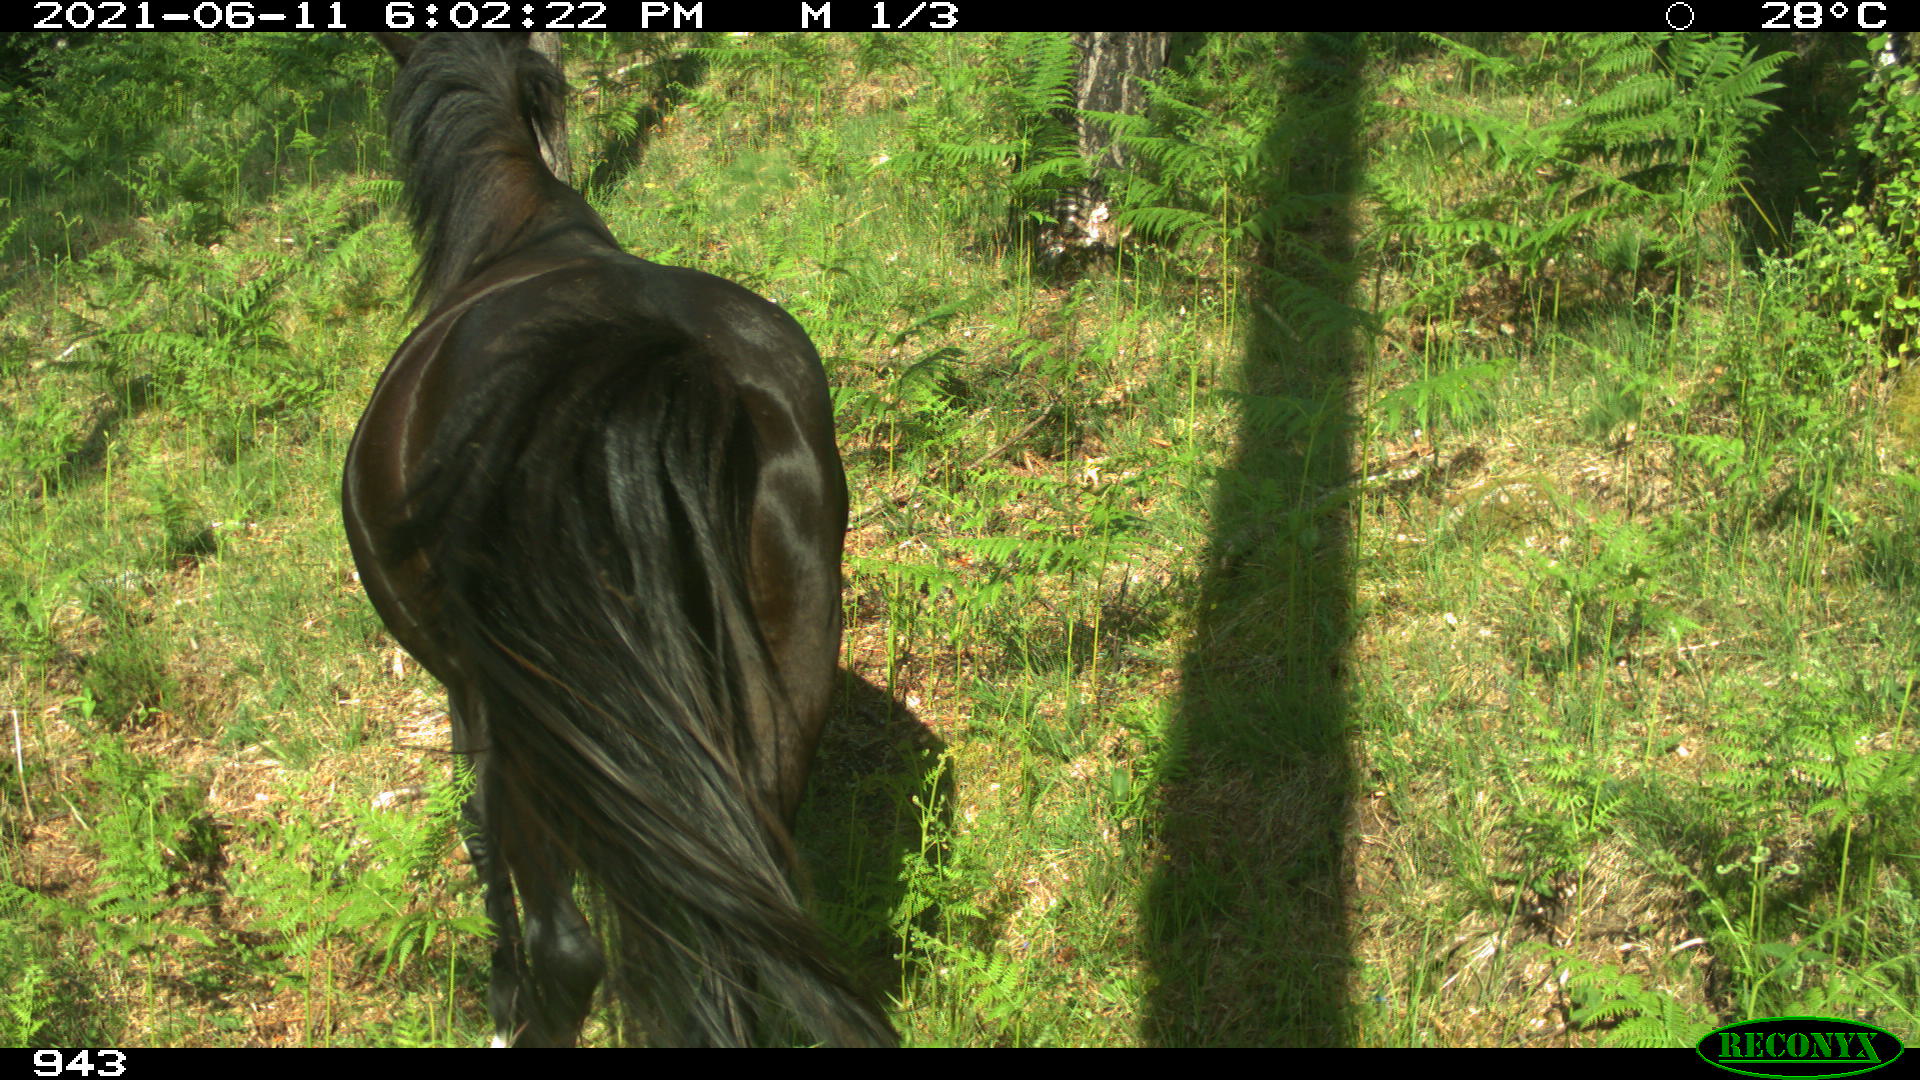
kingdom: Animalia
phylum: Chordata
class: Mammalia
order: Perissodactyla
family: Equidae
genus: Equus
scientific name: Equus caballus
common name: Horse
